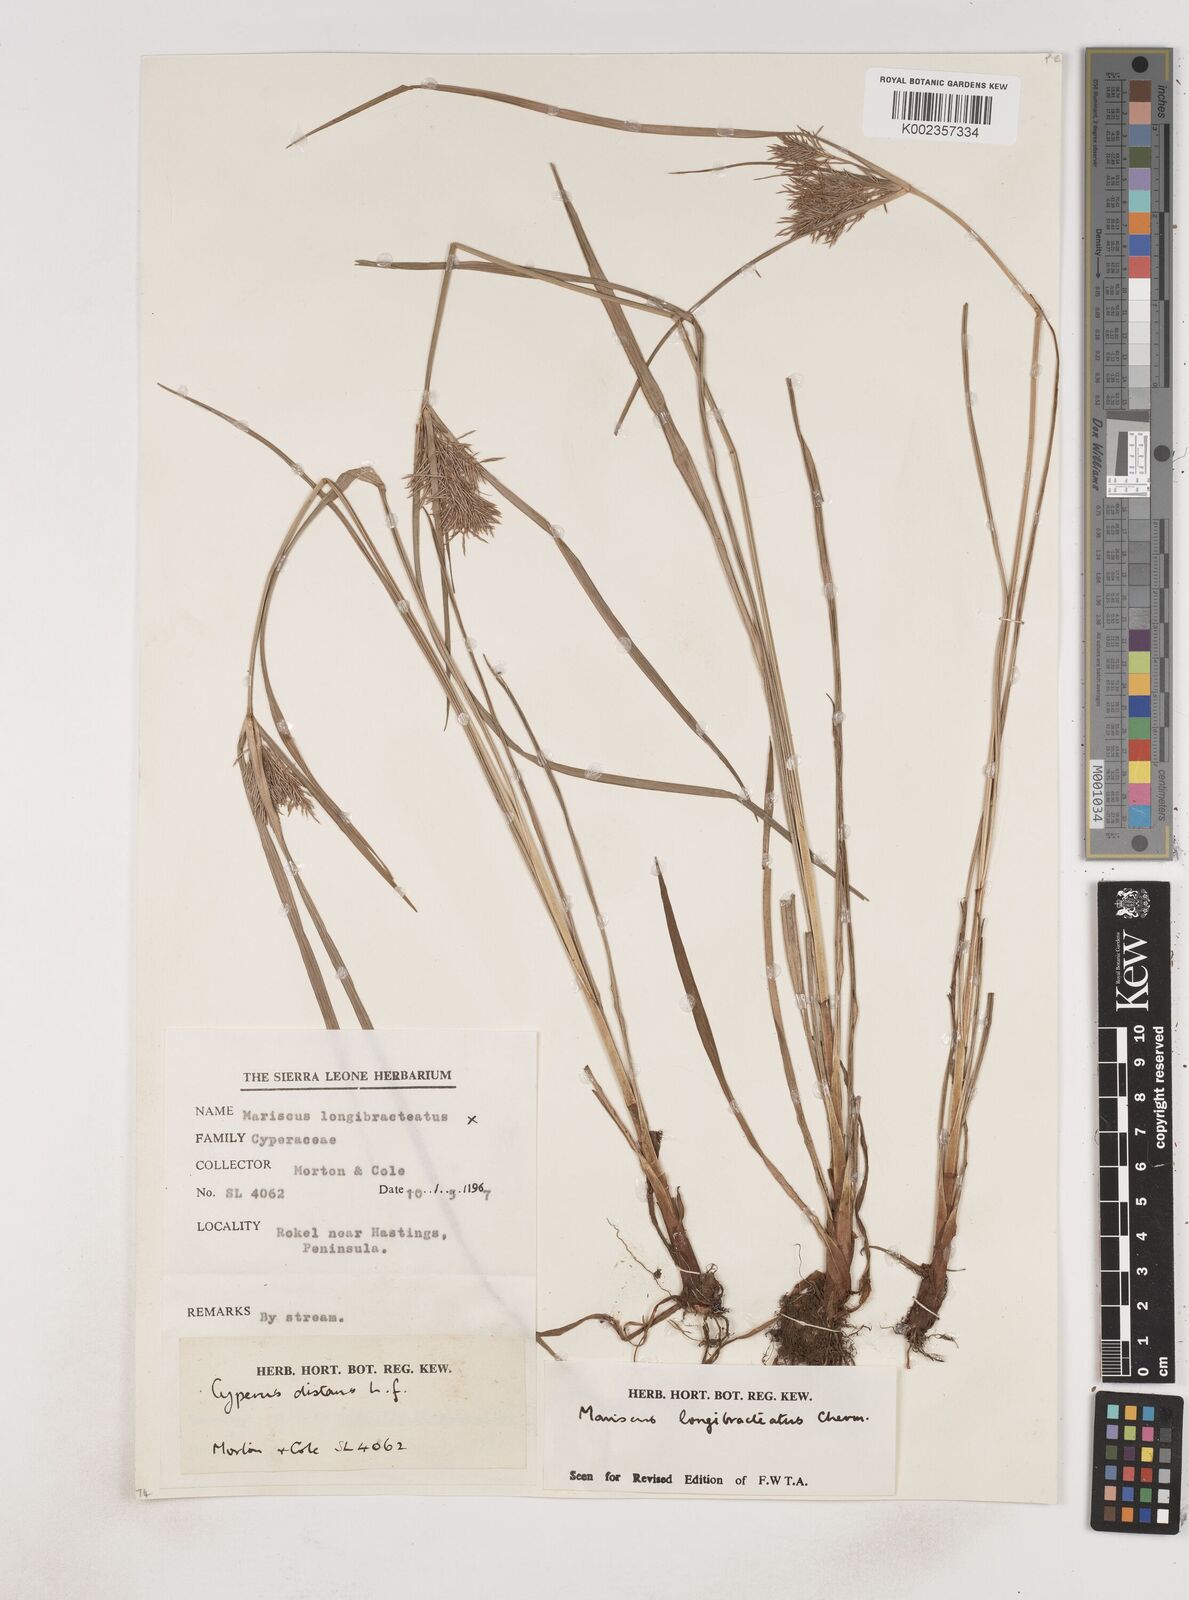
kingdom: Plantae
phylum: Tracheophyta
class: Liliopsida
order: Poales
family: Cyperaceae
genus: Cyperus
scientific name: Cyperus distans
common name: Slender cyperus
